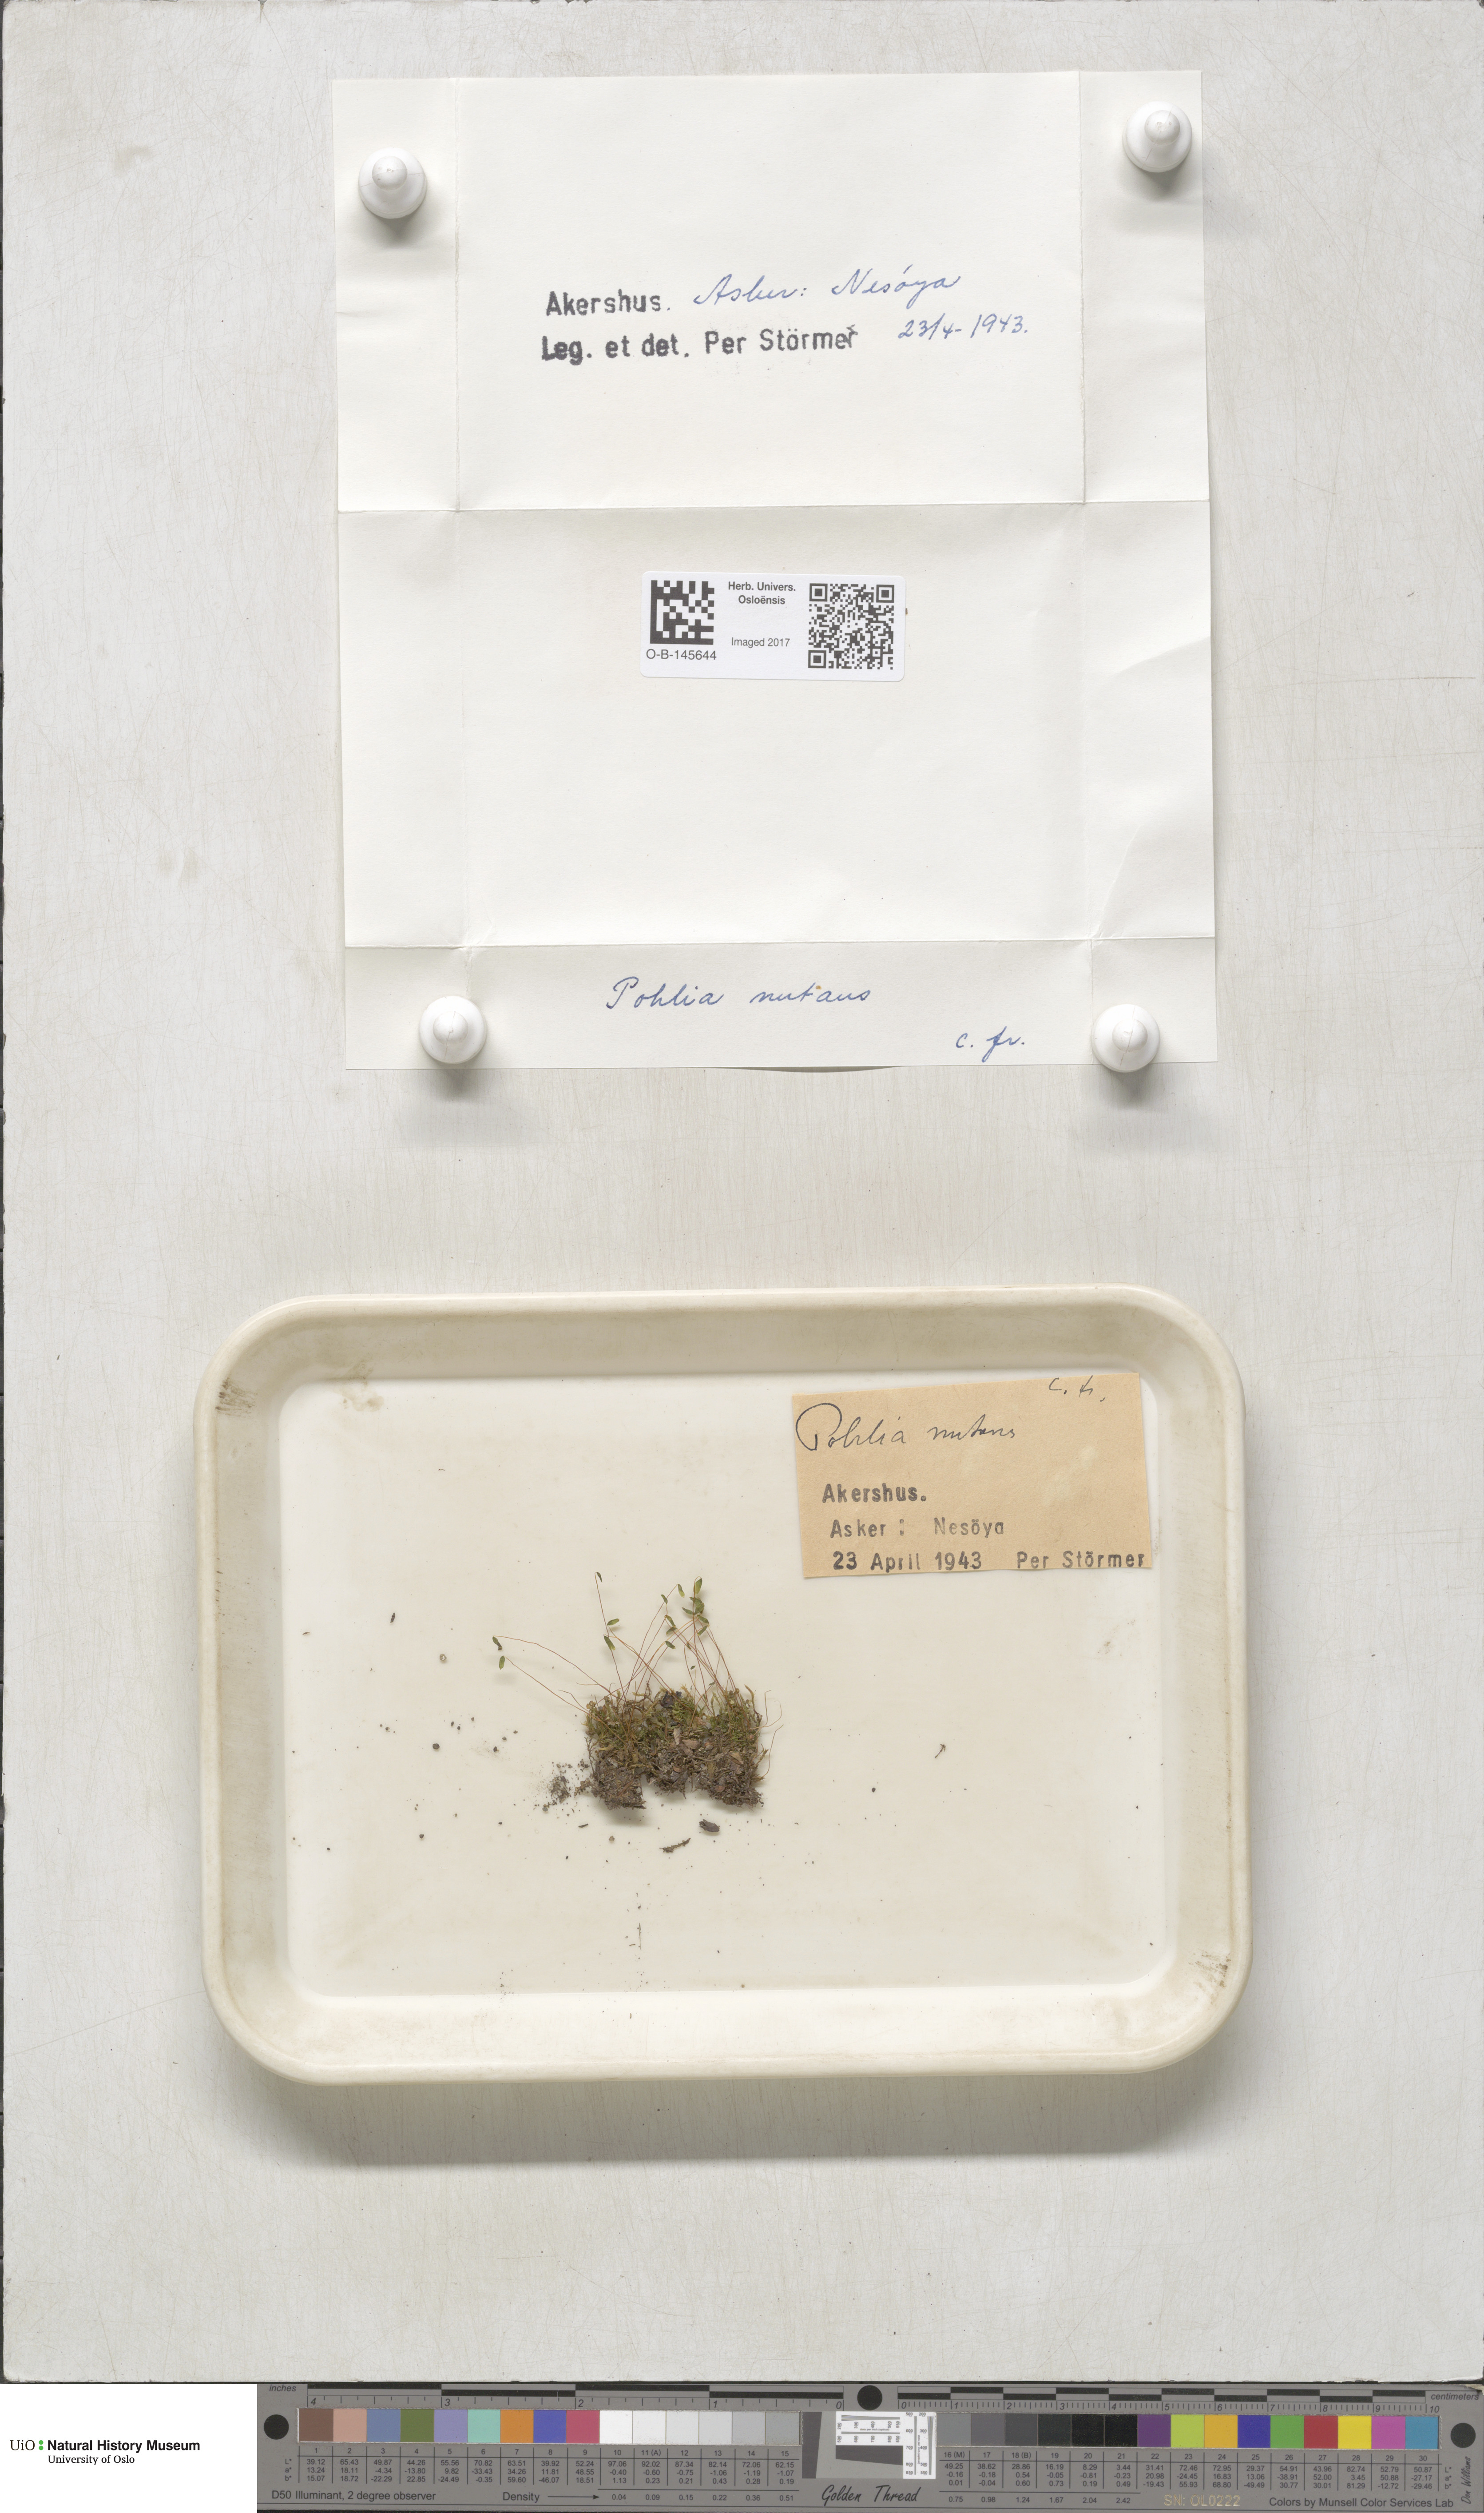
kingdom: Plantae
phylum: Bryophyta
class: Bryopsida
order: Bryales
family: Mniaceae
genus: Pohlia
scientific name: Pohlia nutans
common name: Nodding thread-moss
